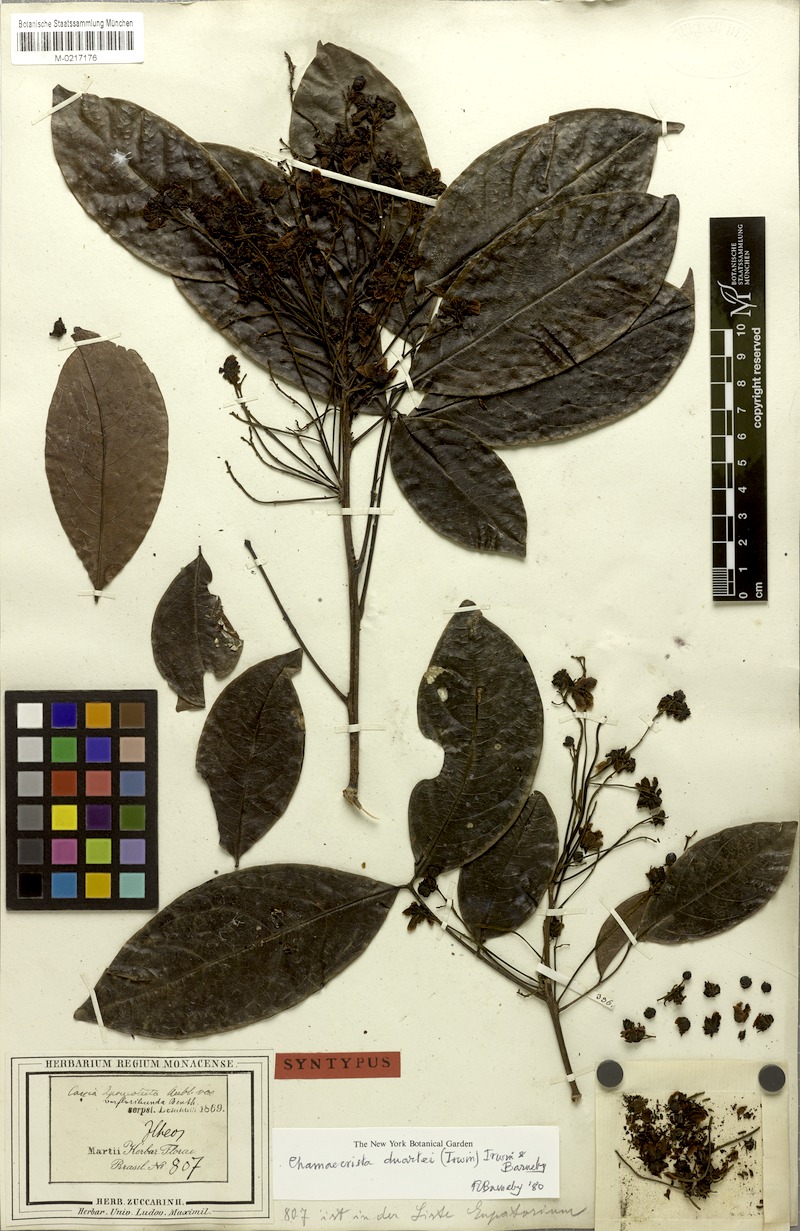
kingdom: Plantae
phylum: Tracheophyta
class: Magnoliopsida
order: Fabales
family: Fabaceae
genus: Chamaecrista
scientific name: Chamaecrista duartei
